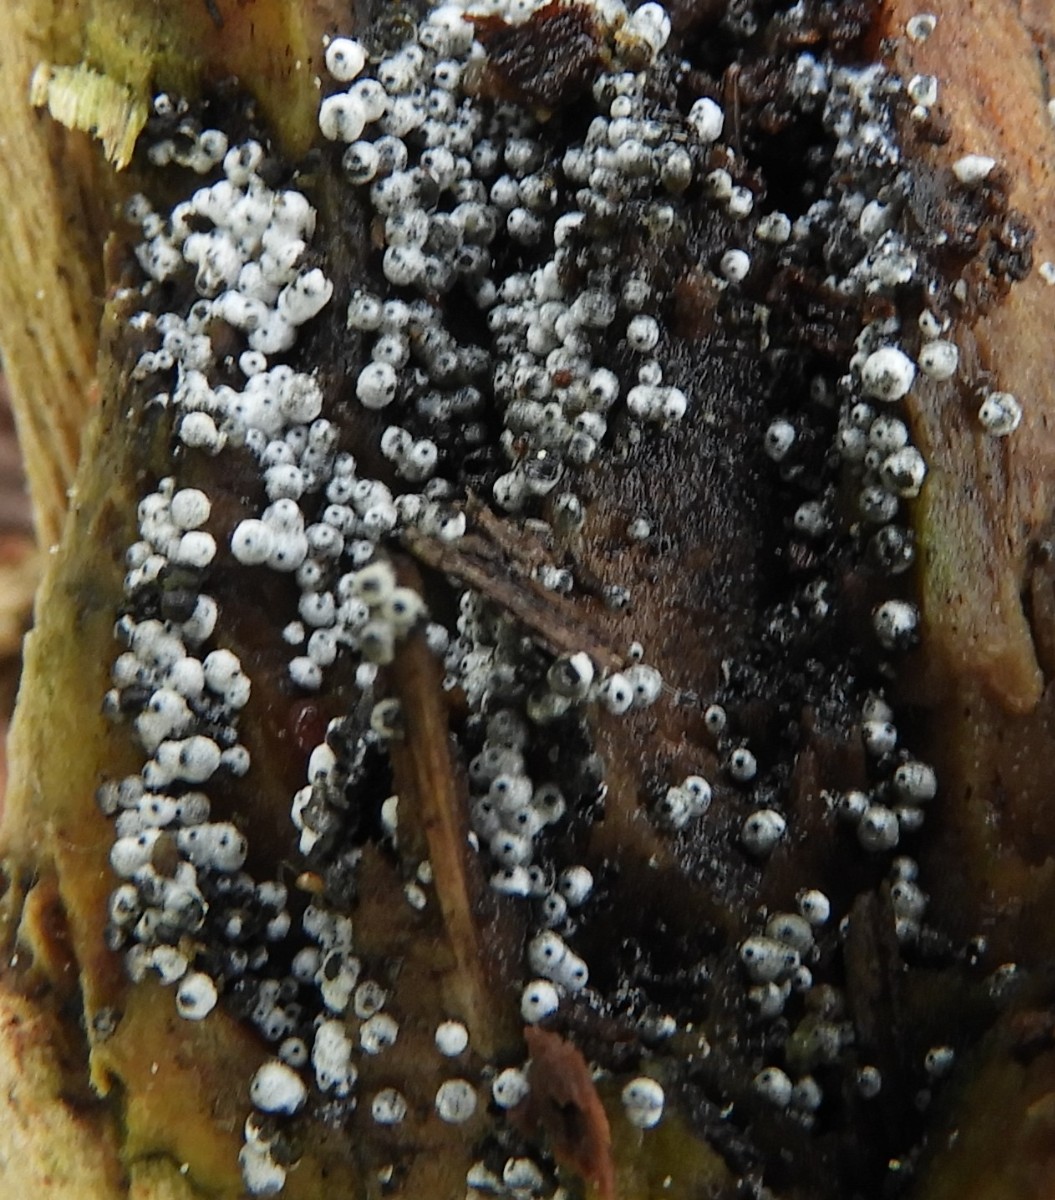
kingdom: Fungi
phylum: Ascomycota
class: Sordariomycetes
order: Sordariales
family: Lasiosphaeriaceae
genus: Lasiosphaeria
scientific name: Lasiosphaeria ovina
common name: fåre-kernesvamp
